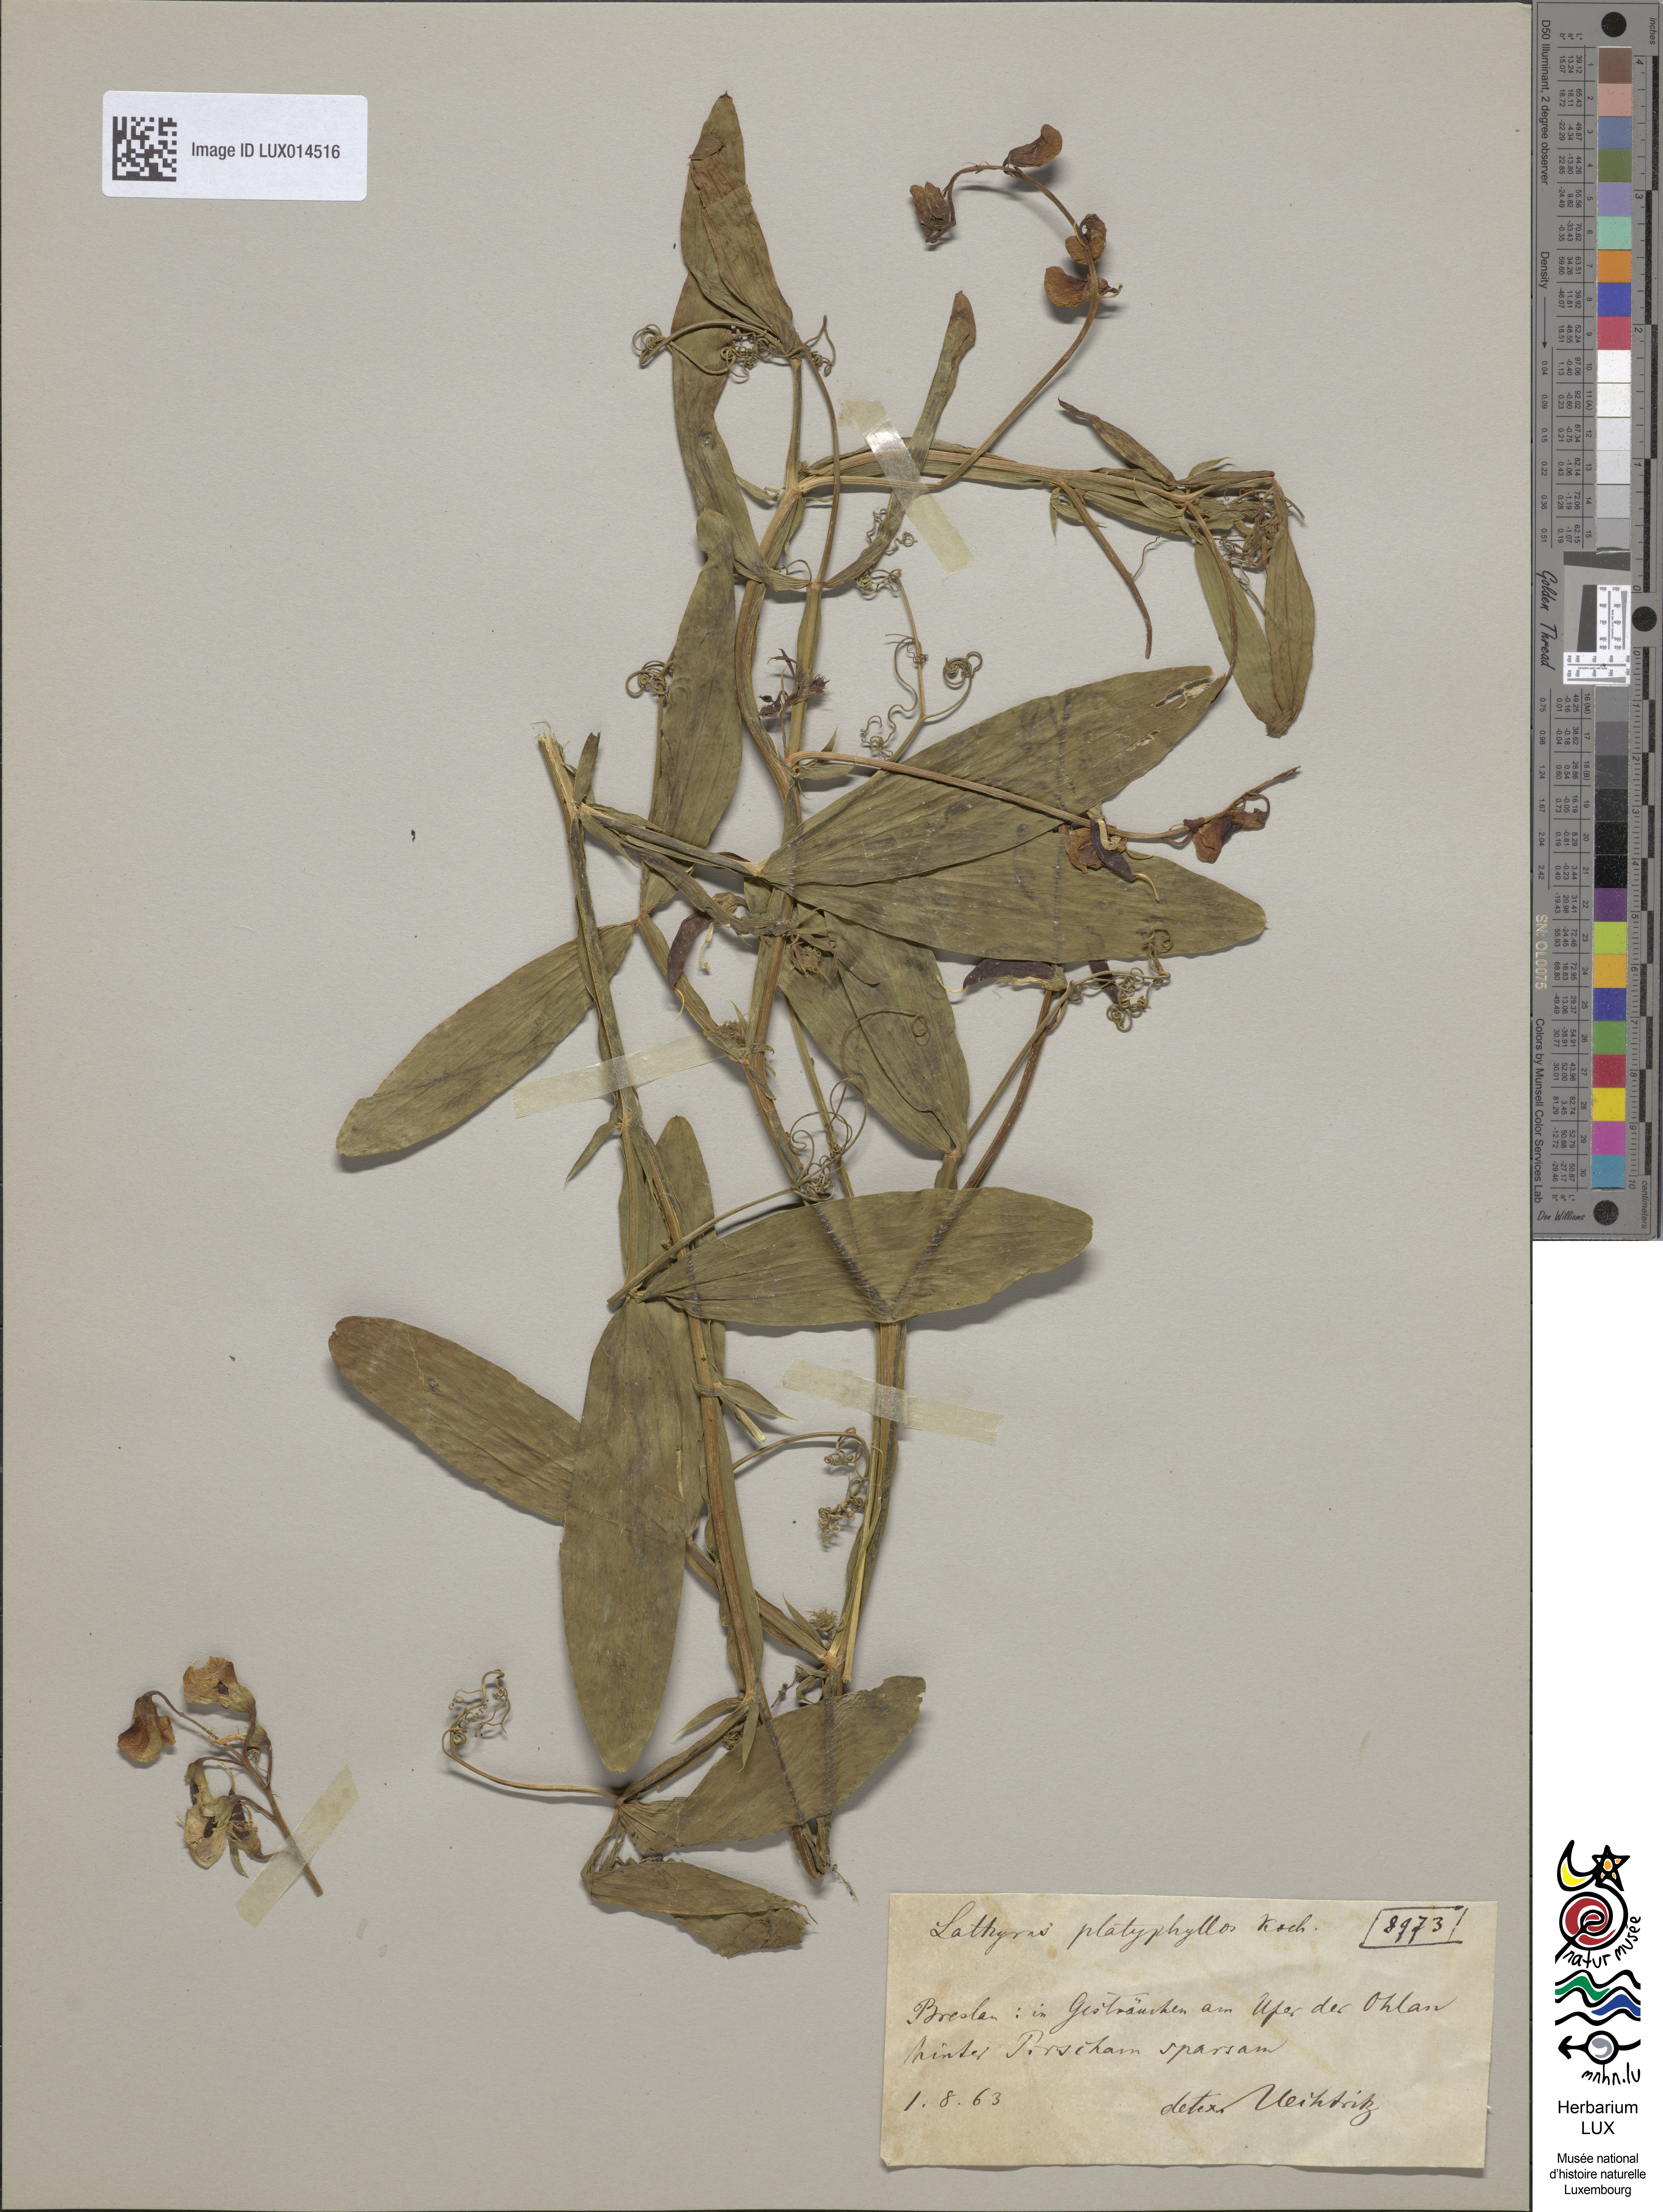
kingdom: Plantae
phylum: Tracheophyta
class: Magnoliopsida
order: Fabales
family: Fabaceae
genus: Lathyrus
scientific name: Lathyrus sylvestris
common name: Flat pea
